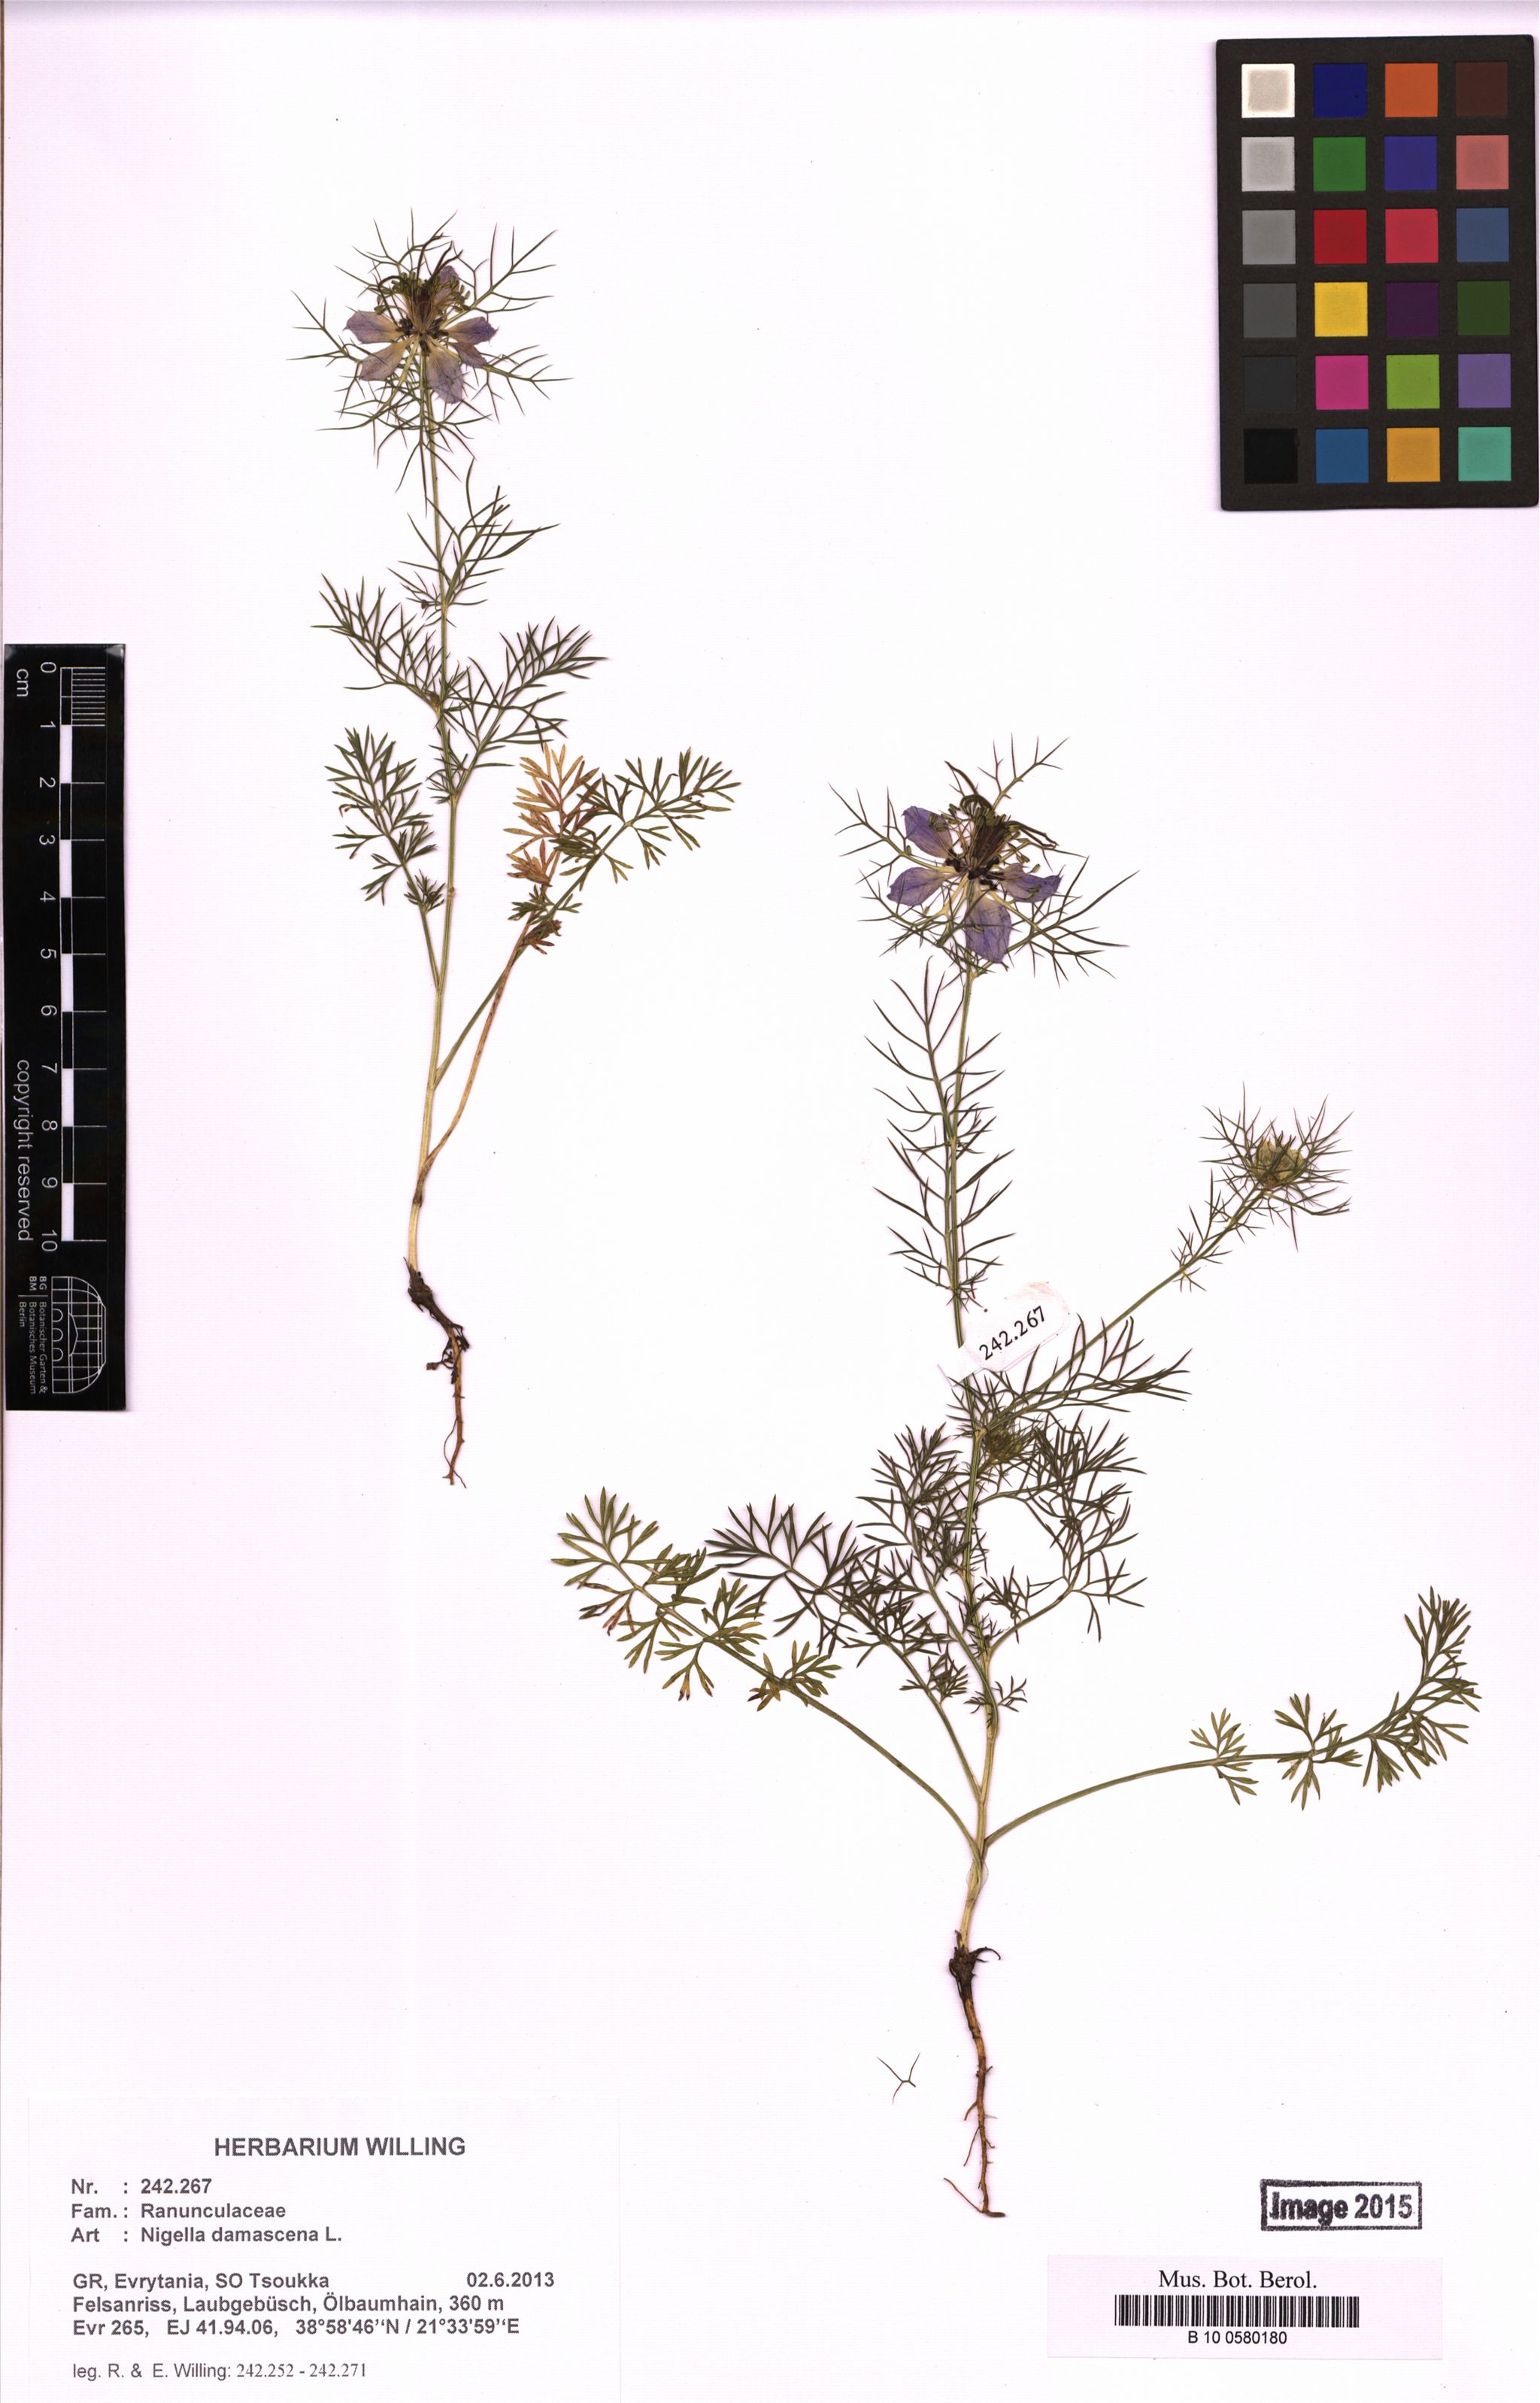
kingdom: Plantae
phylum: Tracheophyta
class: Magnoliopsida
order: Ranunculales
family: Ranunculaceae
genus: Nigella
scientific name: Nigella damascena
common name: Love-in-a-mist
